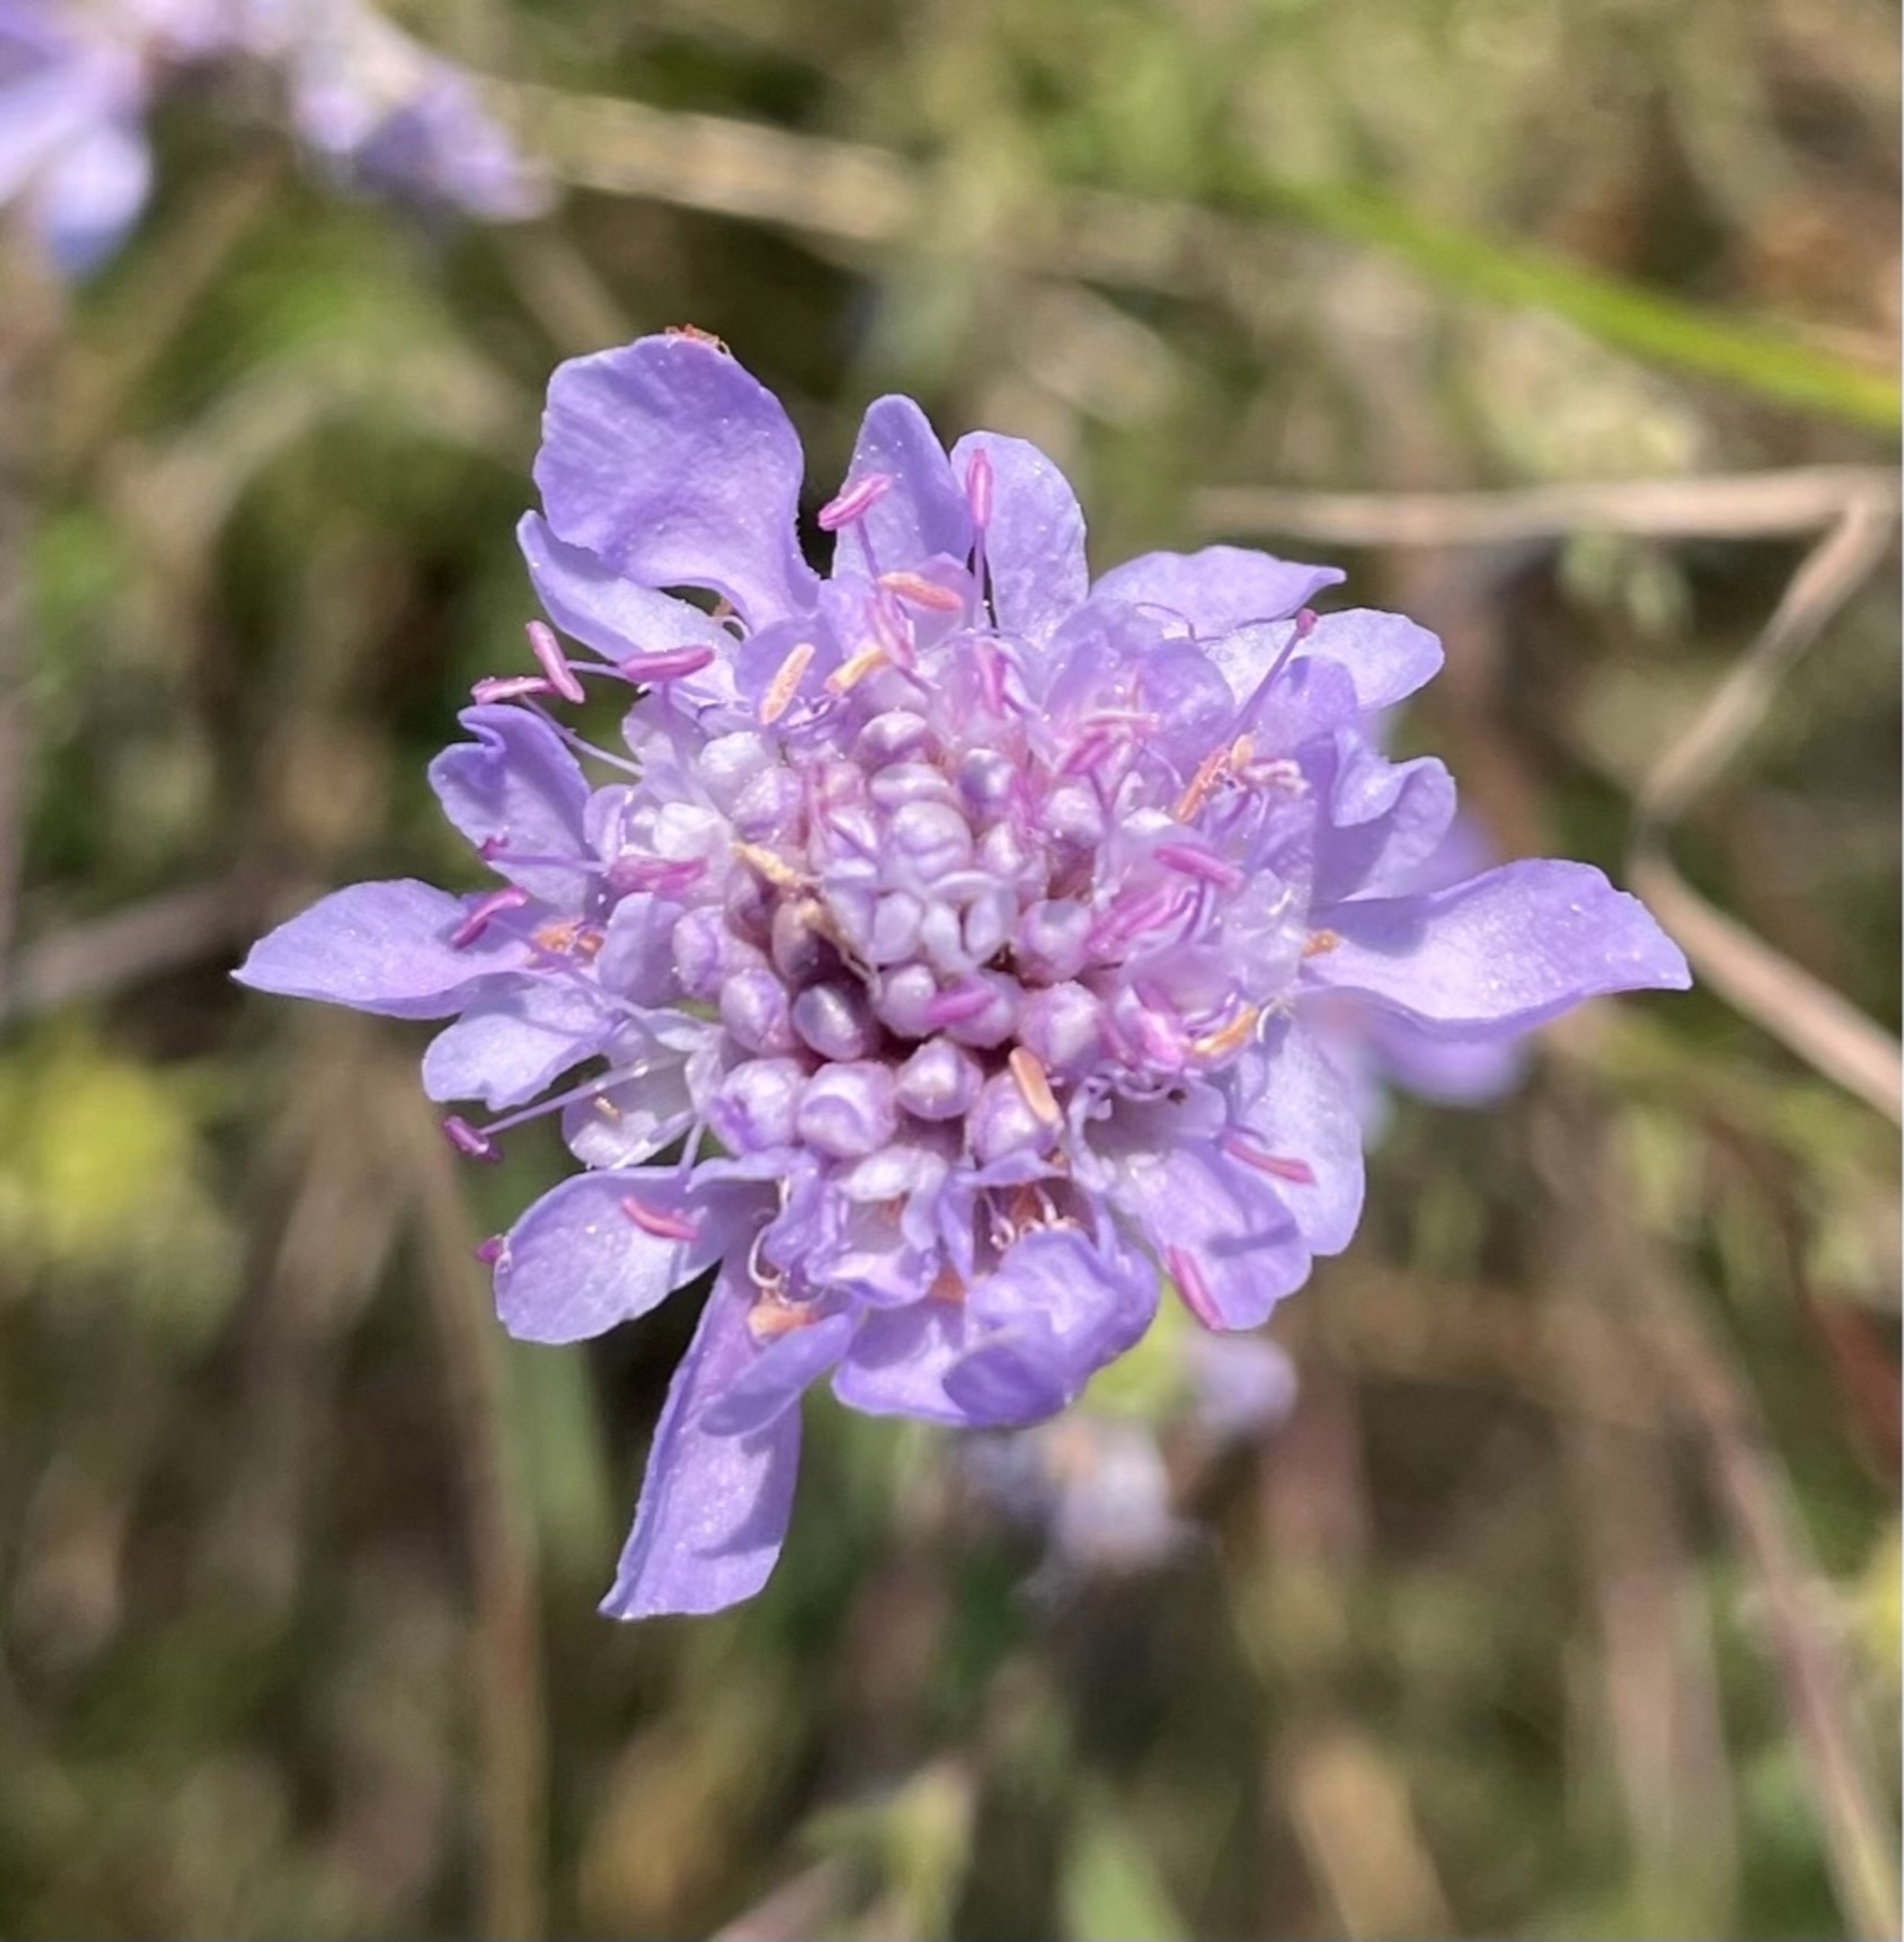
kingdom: Plantae
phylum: Tracheophyta
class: Magnoliopsida
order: Dipsacales
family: Caprifoliaceae
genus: Scabiosa
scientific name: Scabiosa canescens
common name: Vellugtende skabiose
